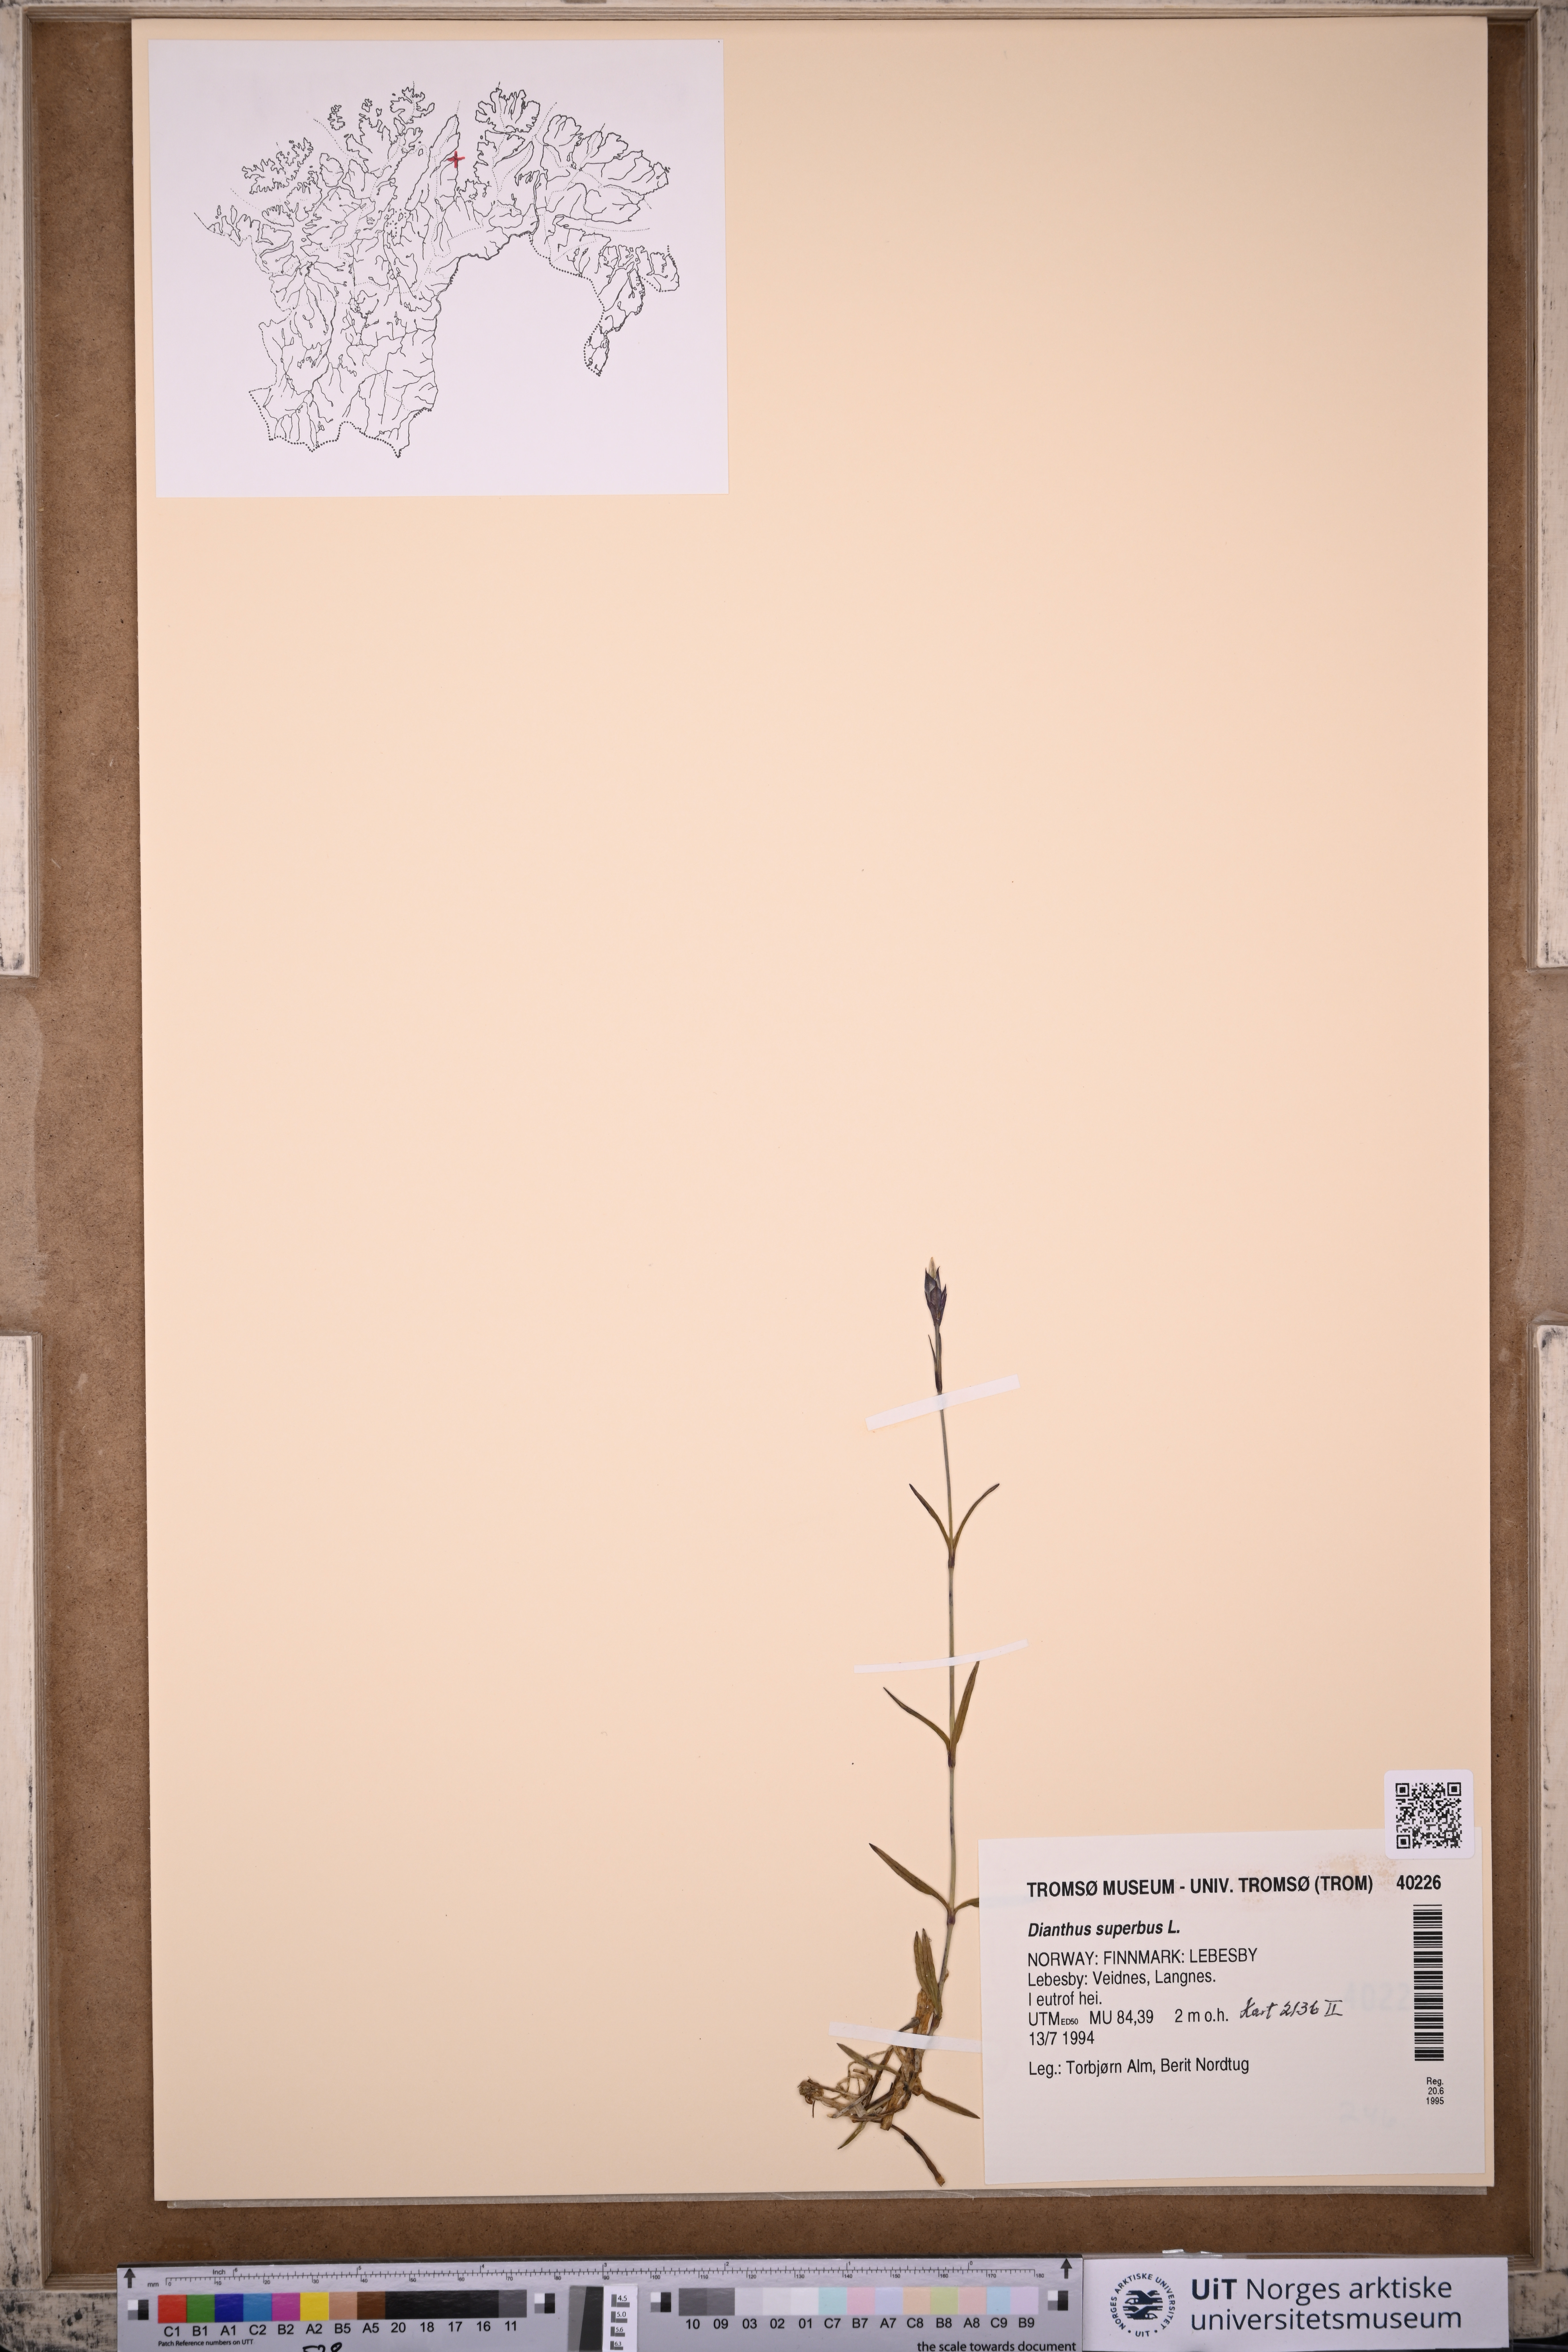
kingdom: Plantae
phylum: Tracheophyta
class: Magnoliopsida
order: Caryophyllales
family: Caryophyllaceae
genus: Dianthus
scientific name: Dianthus superbus
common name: Fringed pink
